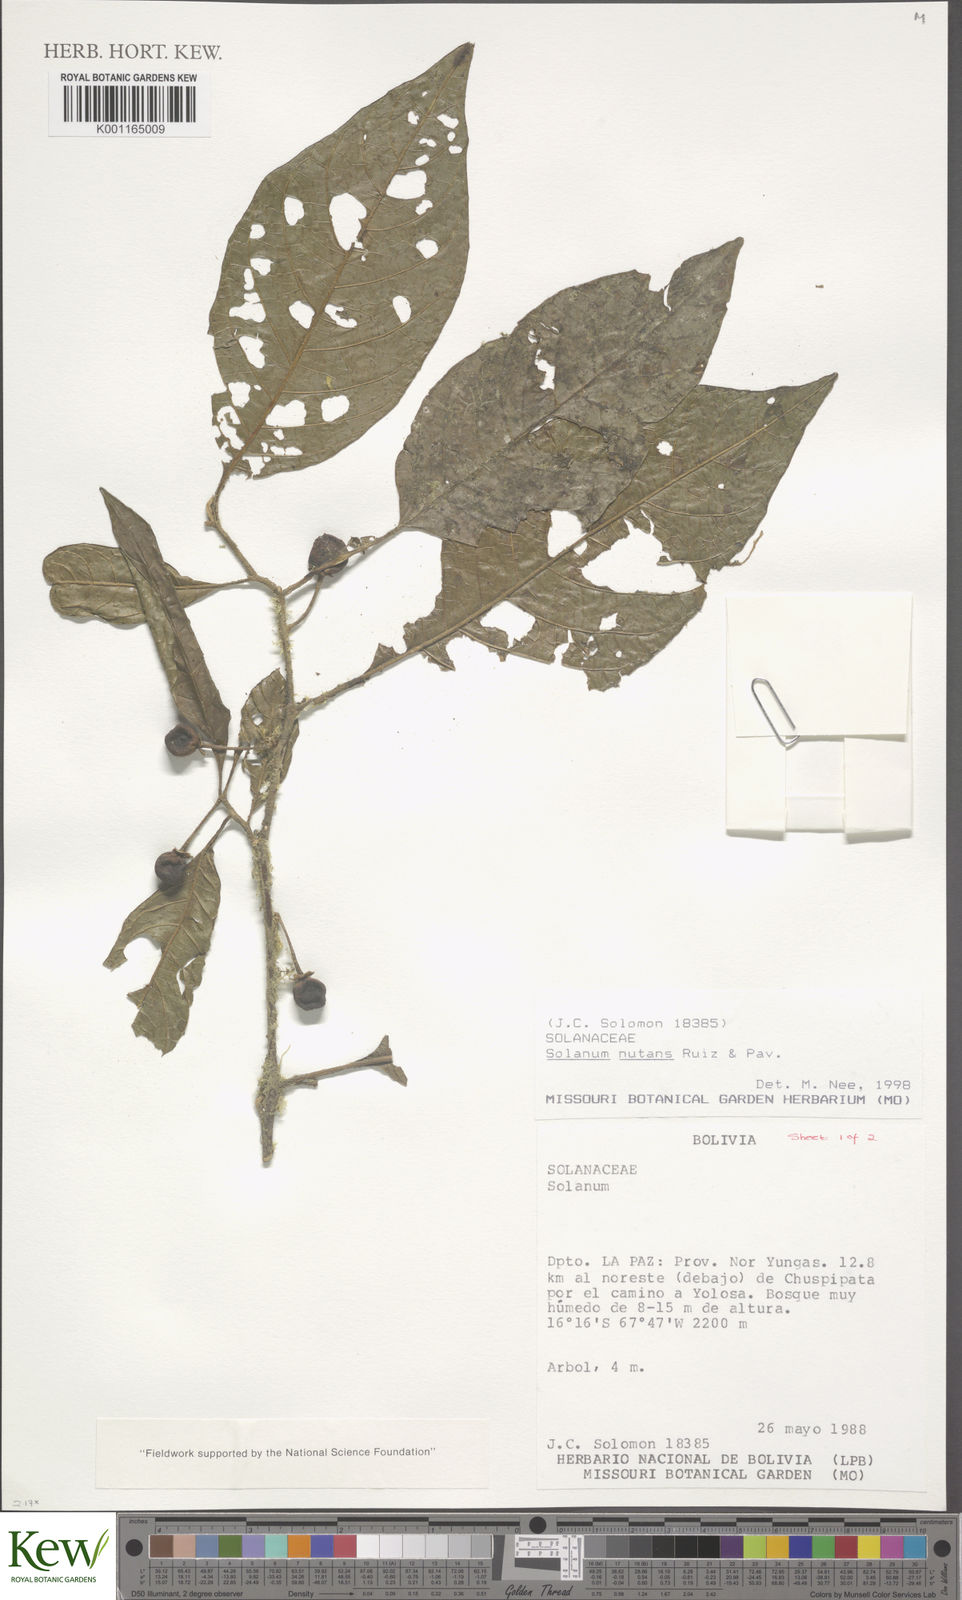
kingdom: Plantae
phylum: Tracheophyta
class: Magnoliopsida
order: Solanales
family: Solanaceae
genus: Solanum
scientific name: Solanum nutans
